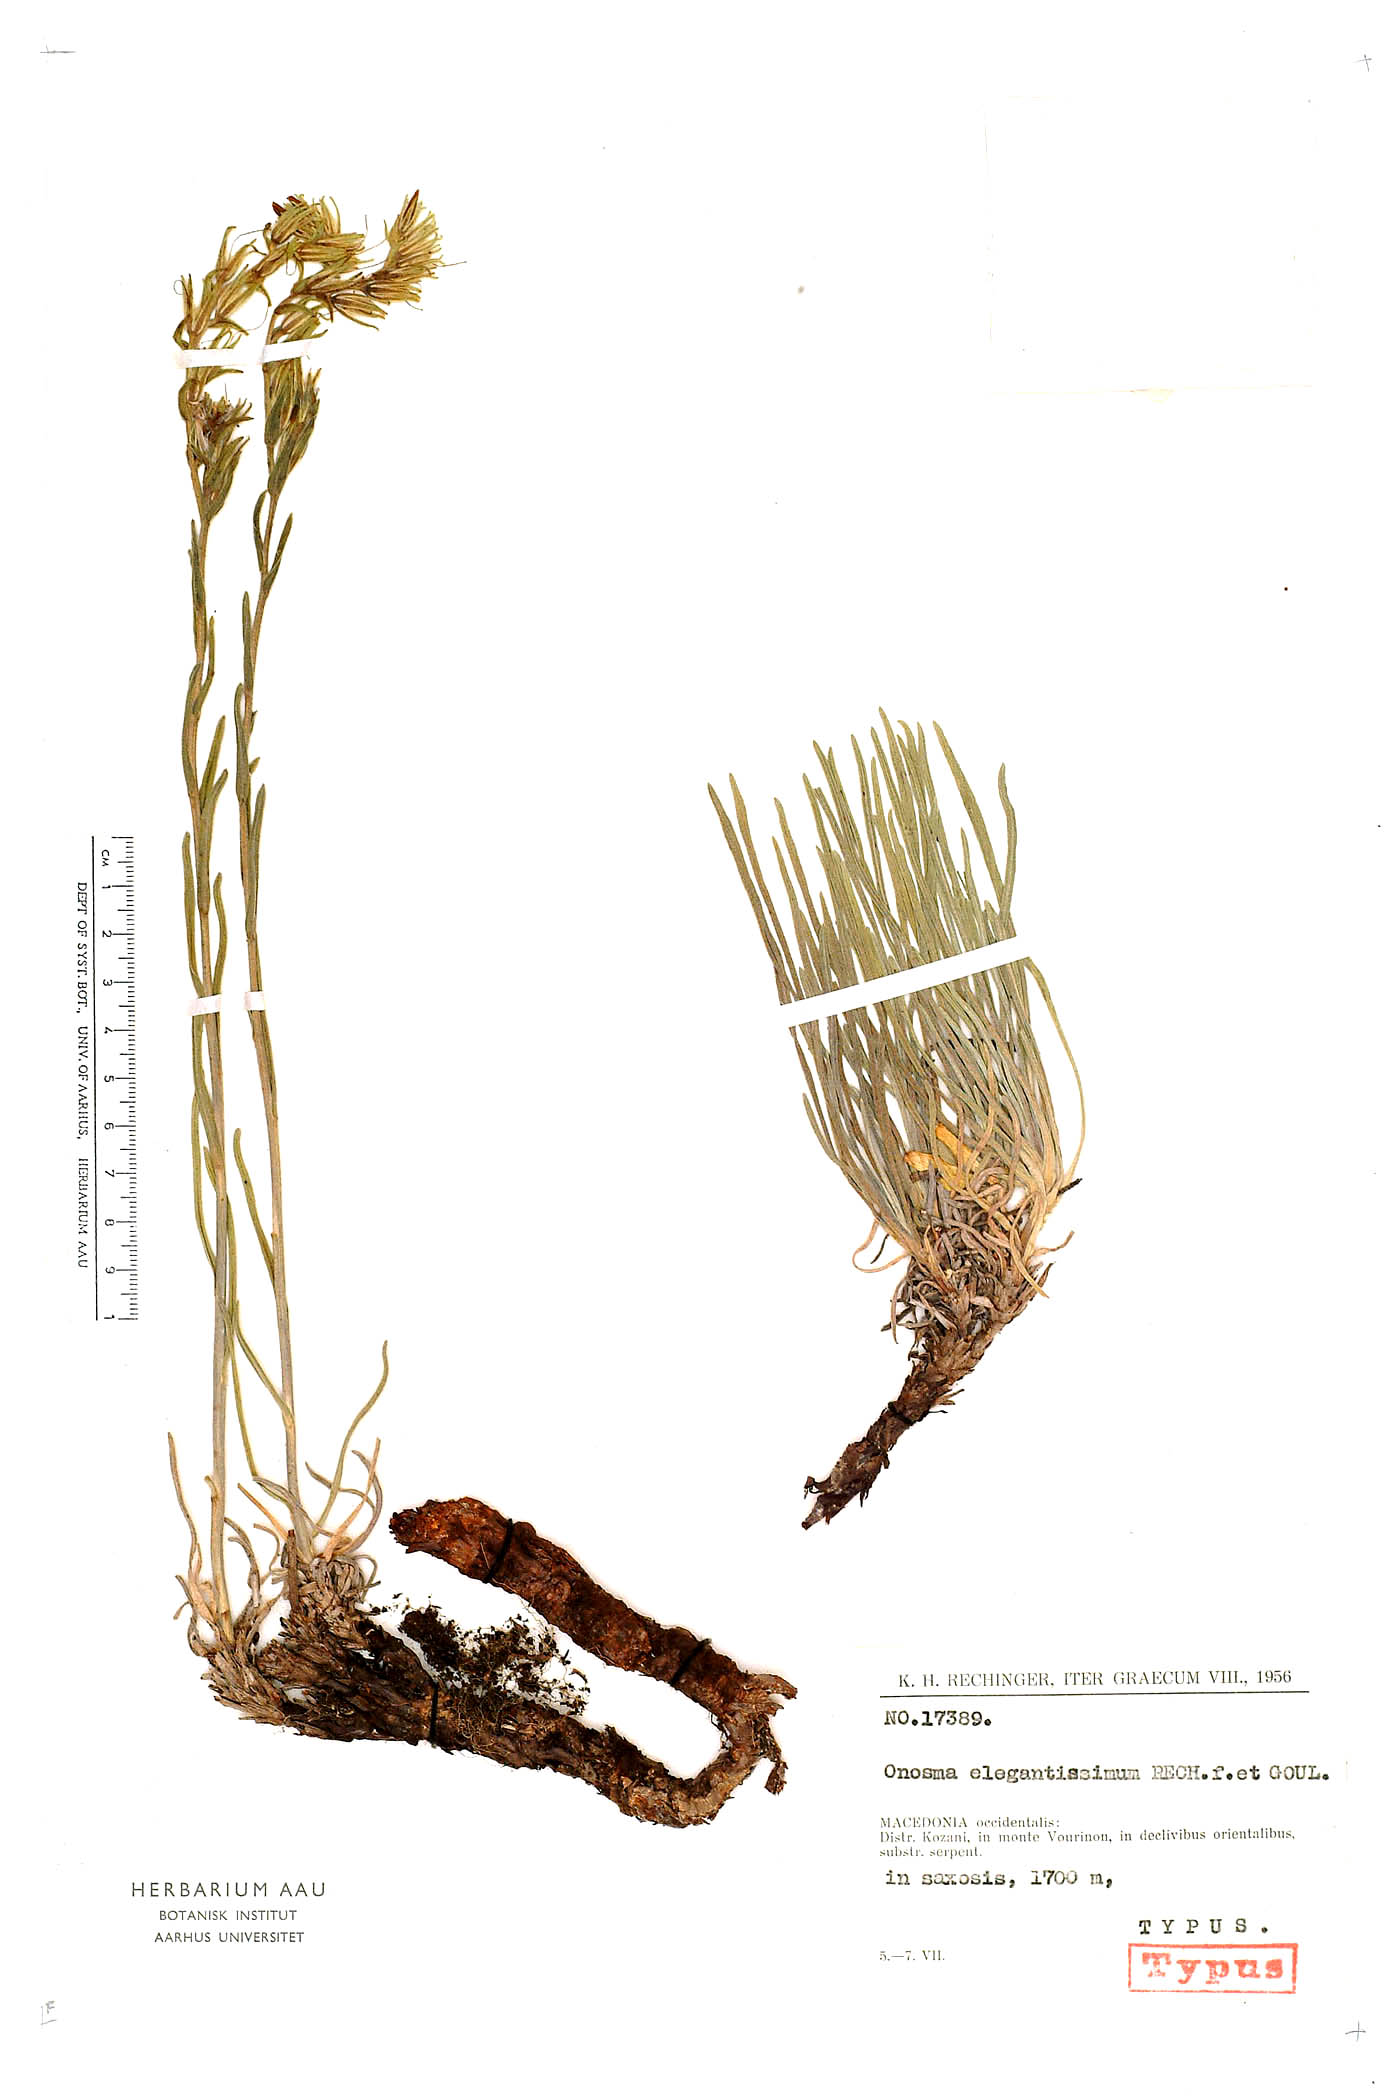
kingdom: Plantae
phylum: Tracheophyta
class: Magnoliopsida
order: Boraginales
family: Boraginaceae
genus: Onosma
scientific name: Onosma elegantissima
